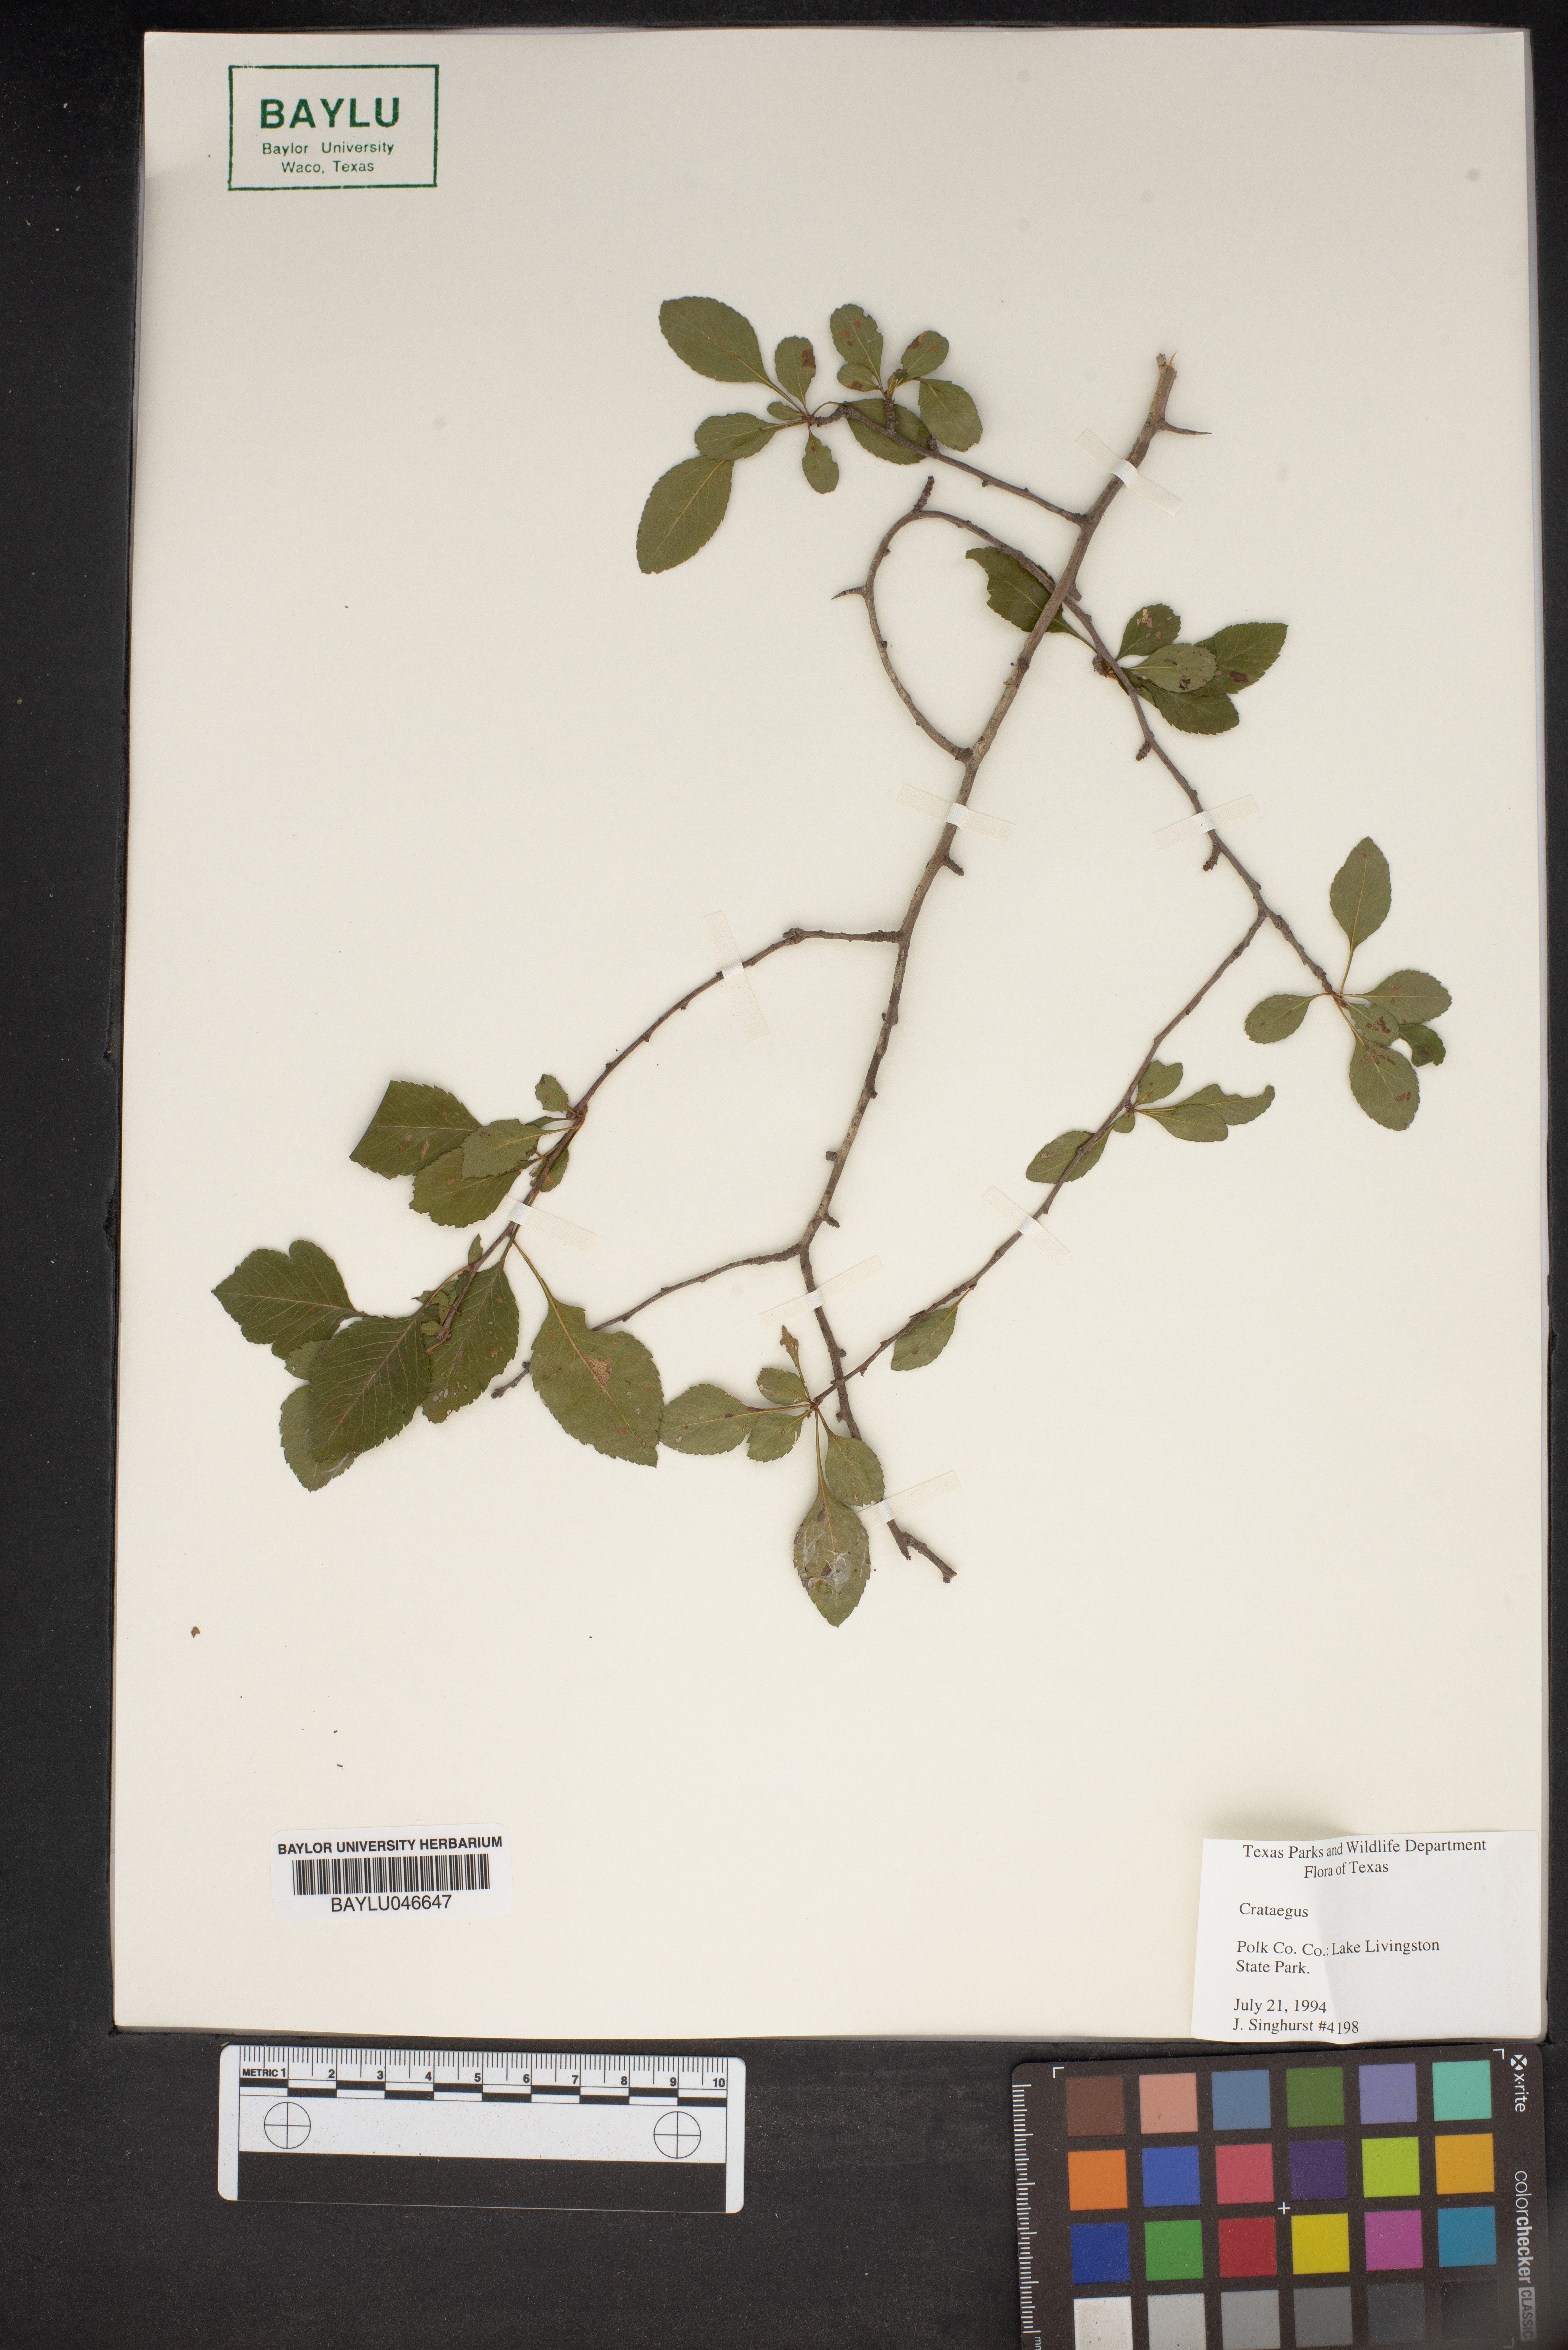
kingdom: Plantae
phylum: Tracheophyta
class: Magnoliopsida
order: Rosales
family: Rosaceae
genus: Crataegus
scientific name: Crataegus
